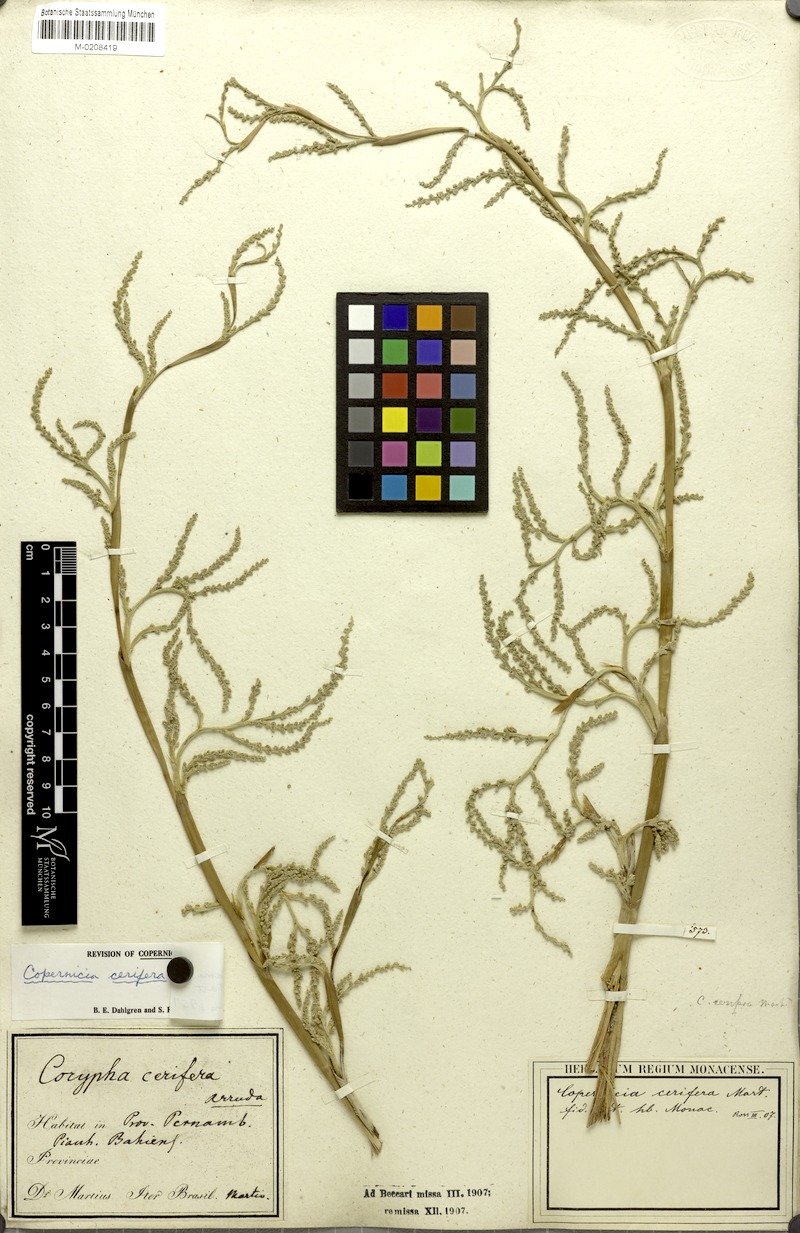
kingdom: Plantae
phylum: Tracheophyta
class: Liliopsida
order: Arecales
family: Arecaceae
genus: Copernicia
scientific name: Copernicia prunifera
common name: Carnauba palm
